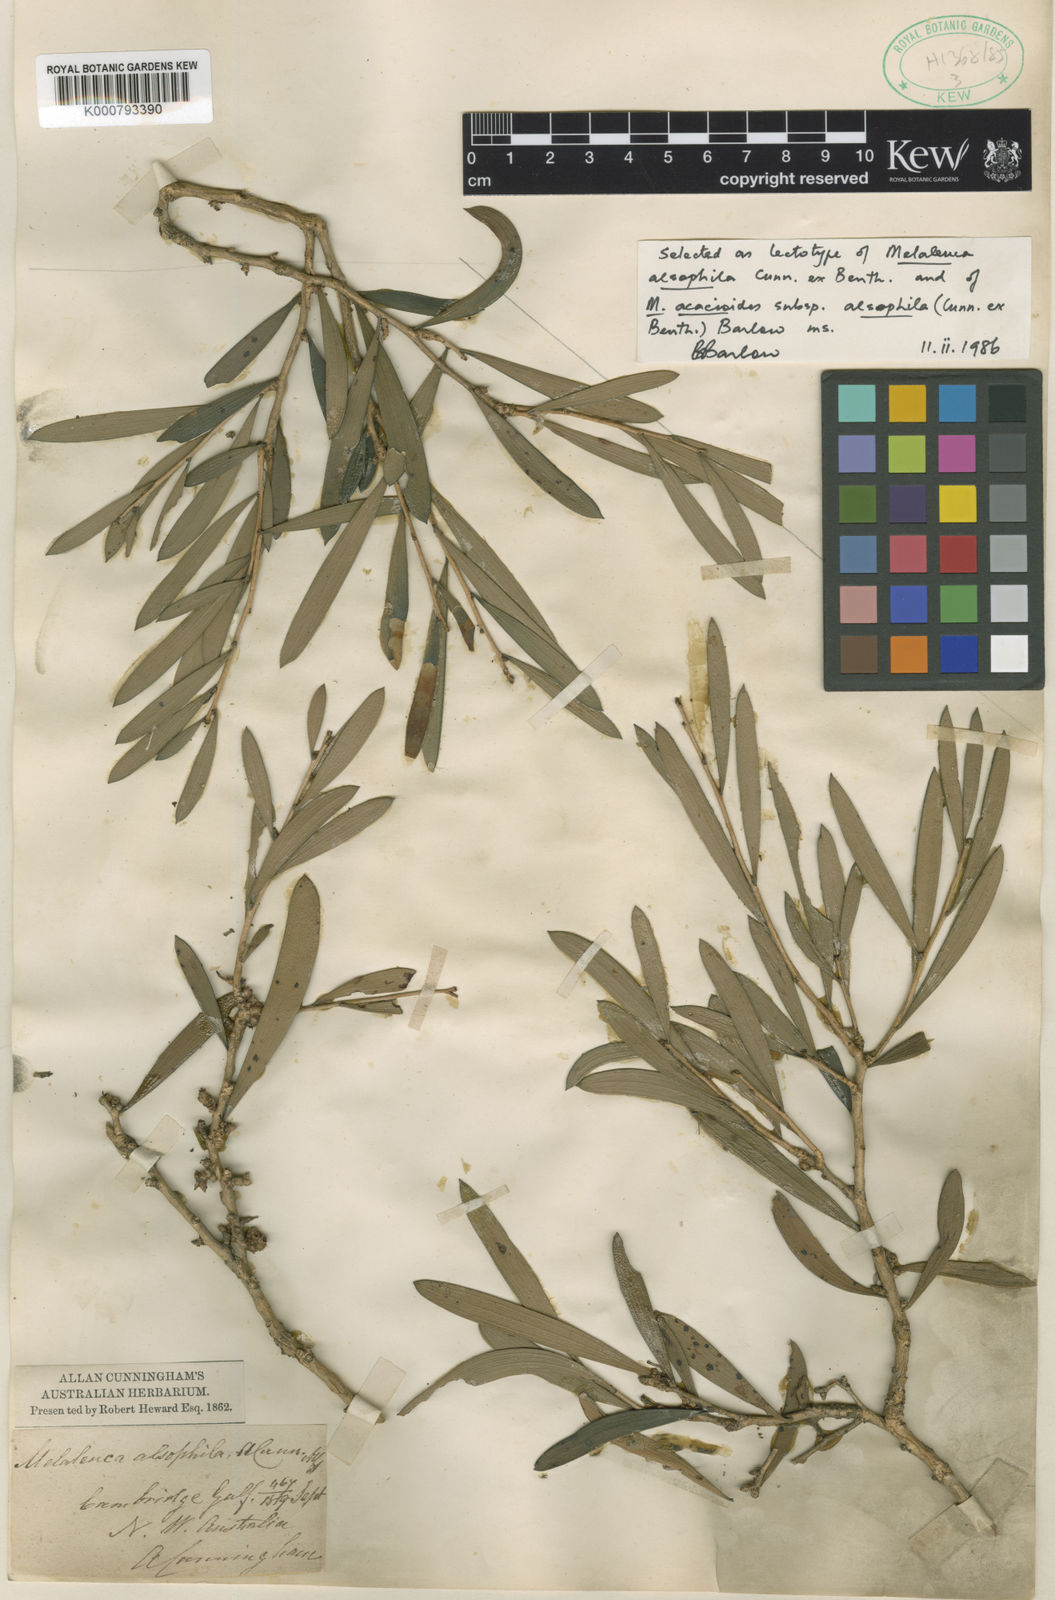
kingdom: Plantae
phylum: Tracheophyta
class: Magnoliopsida
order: Myrtales
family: Myrtaceae
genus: Melaleuca
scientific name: Melaleuca alsophila
